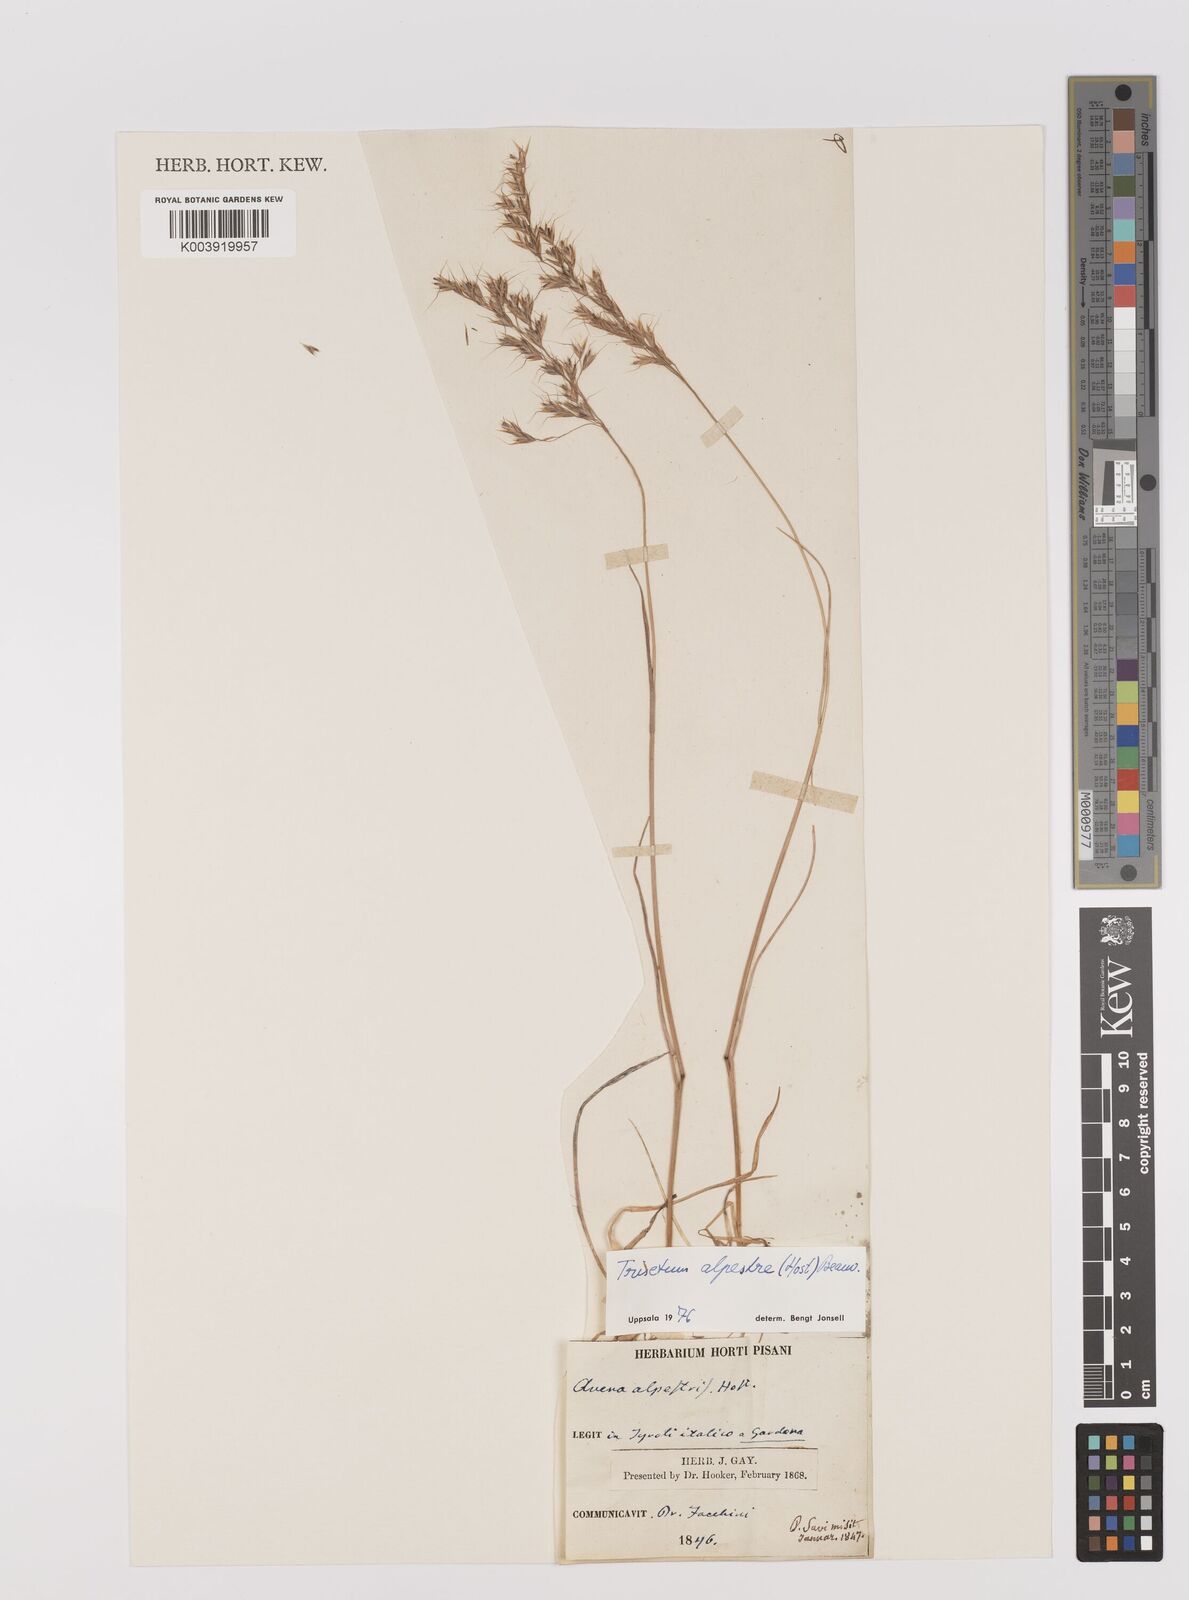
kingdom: Plantae
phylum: Tracheophyta
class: Liliopsida
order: Poales
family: Poaceae
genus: Trisetum
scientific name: Trisetum alpestre
